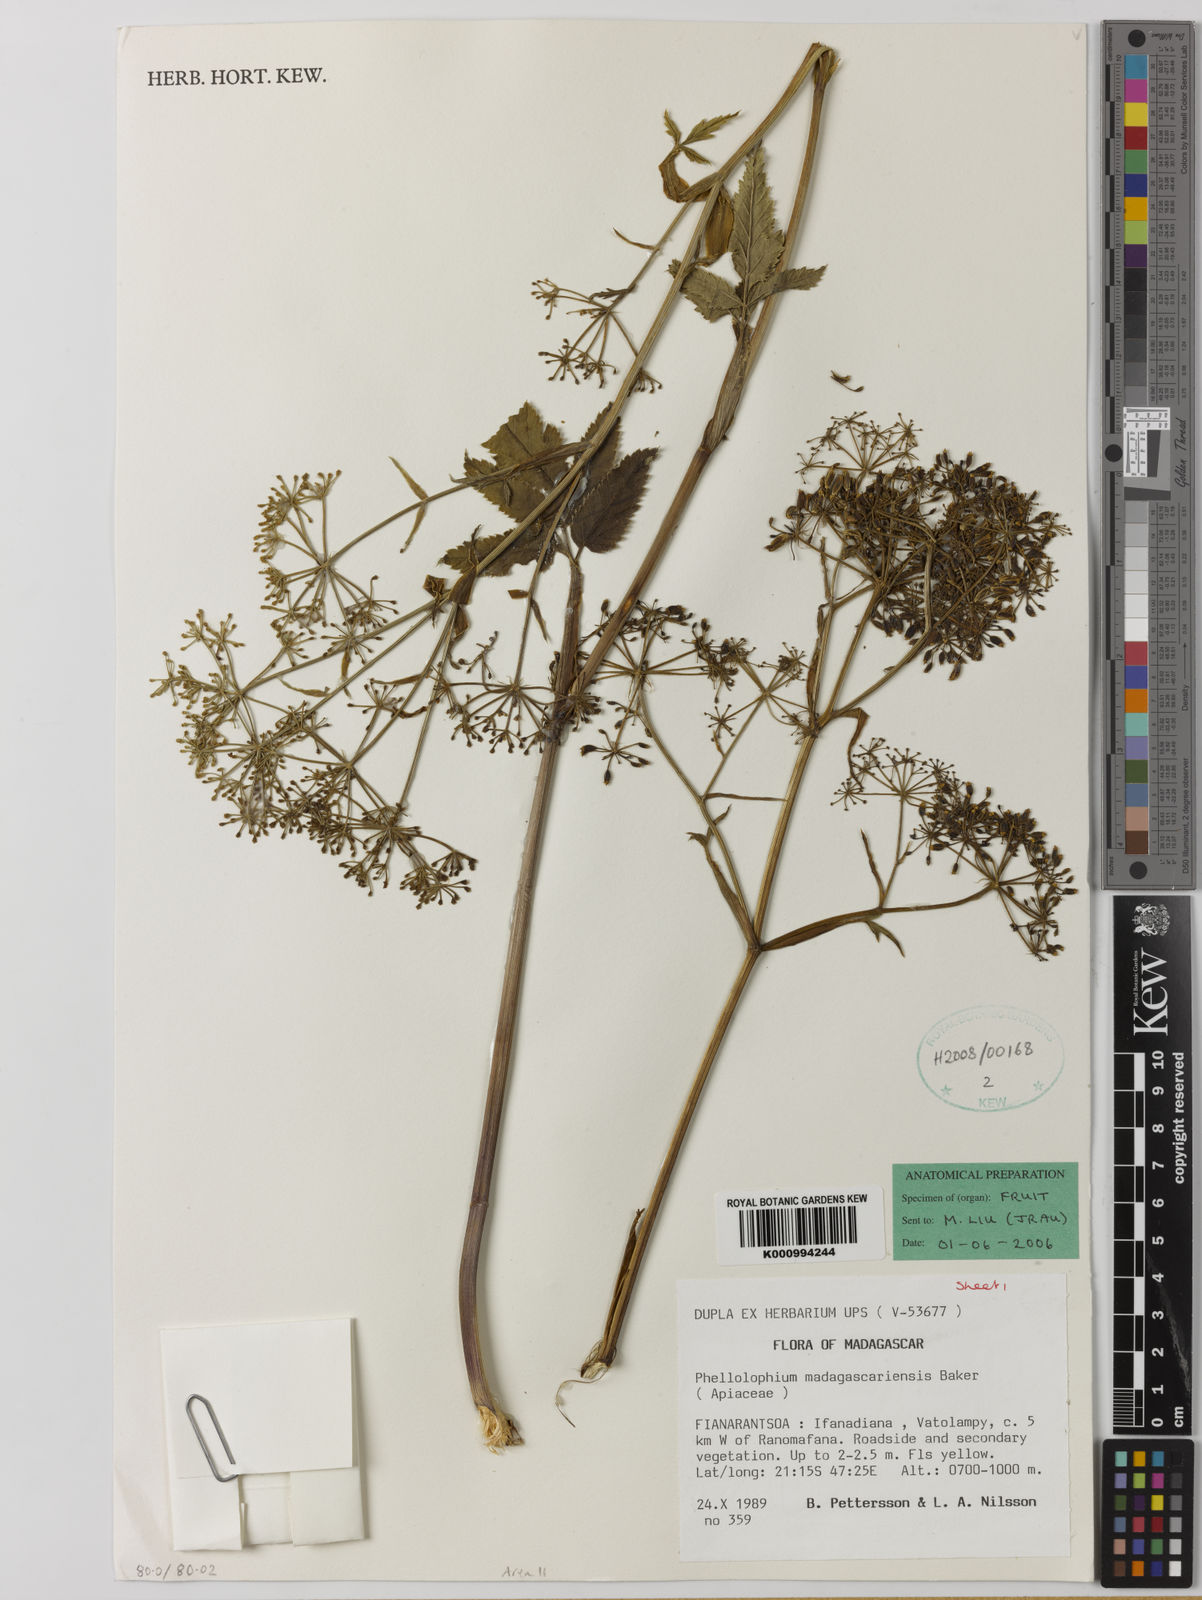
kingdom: Plantae
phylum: Tracheophyta
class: Magnoliopsida
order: Apiales
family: Apiaceae
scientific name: Apiaceae
